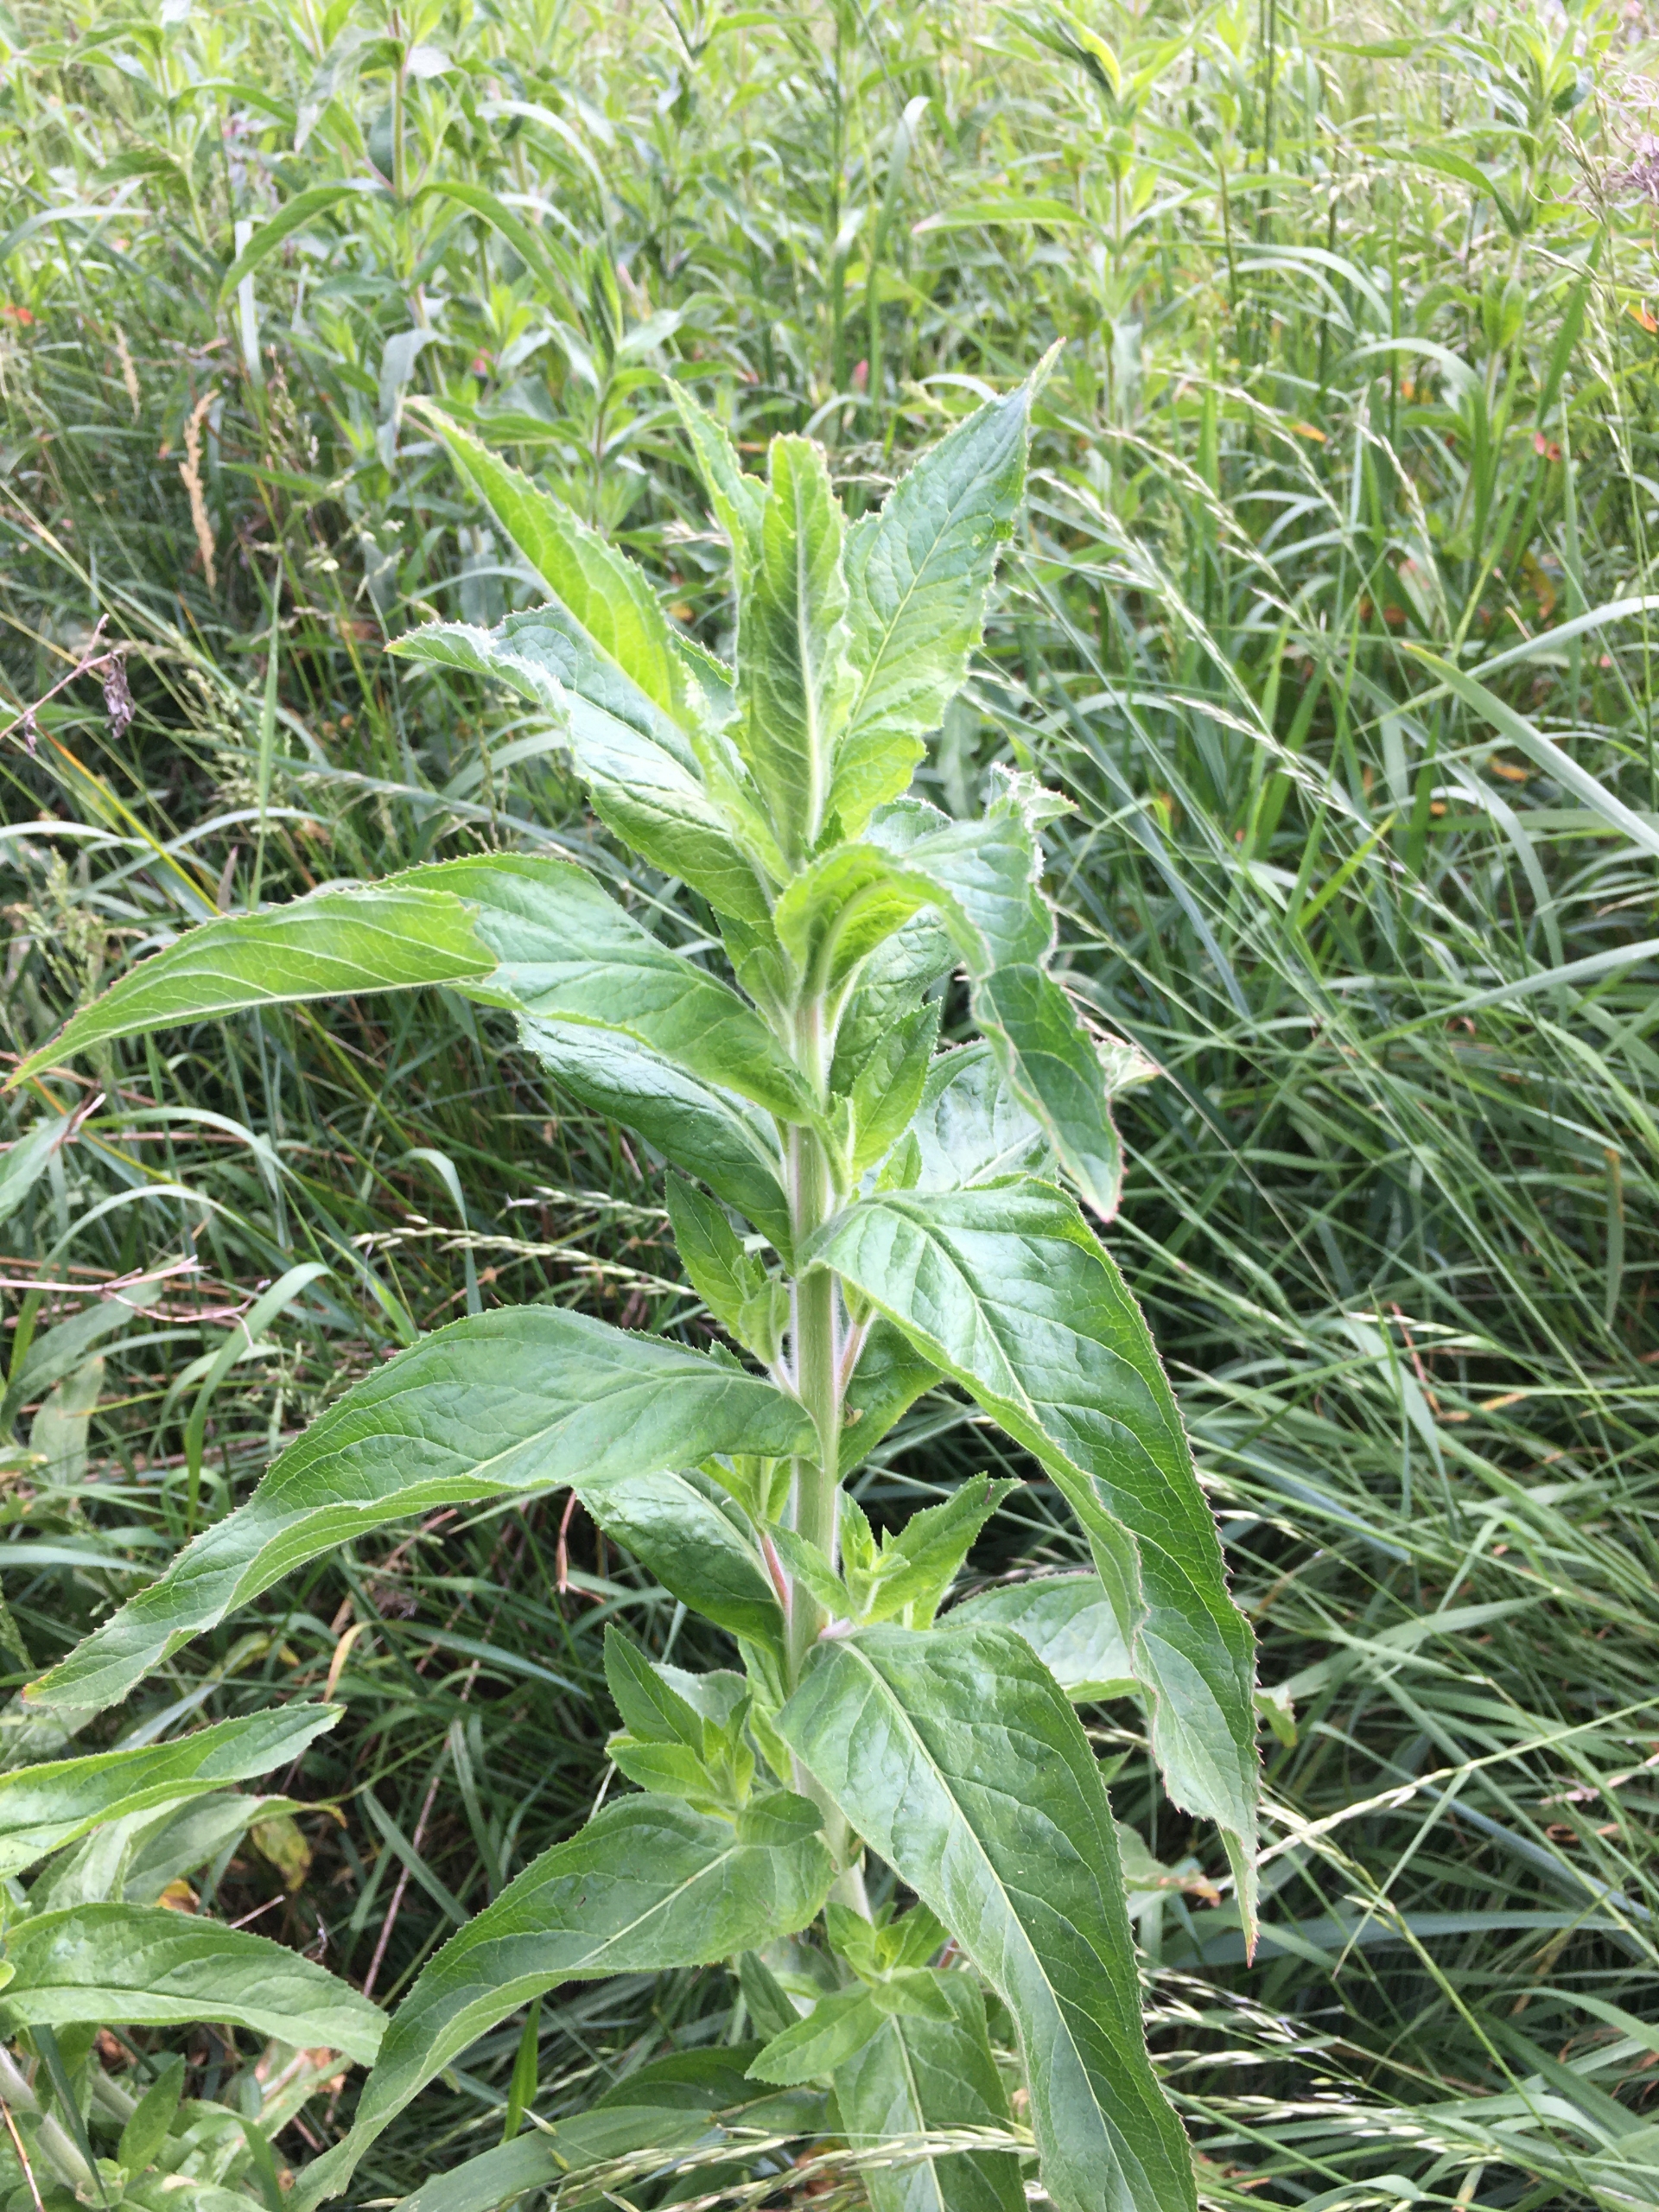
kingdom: Plantae
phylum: Tracheophyta
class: Magnoliopsida
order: Myrtales
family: Onagraceae
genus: Epilobium
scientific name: Epilobium hirsutum
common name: Lådden dueurt
